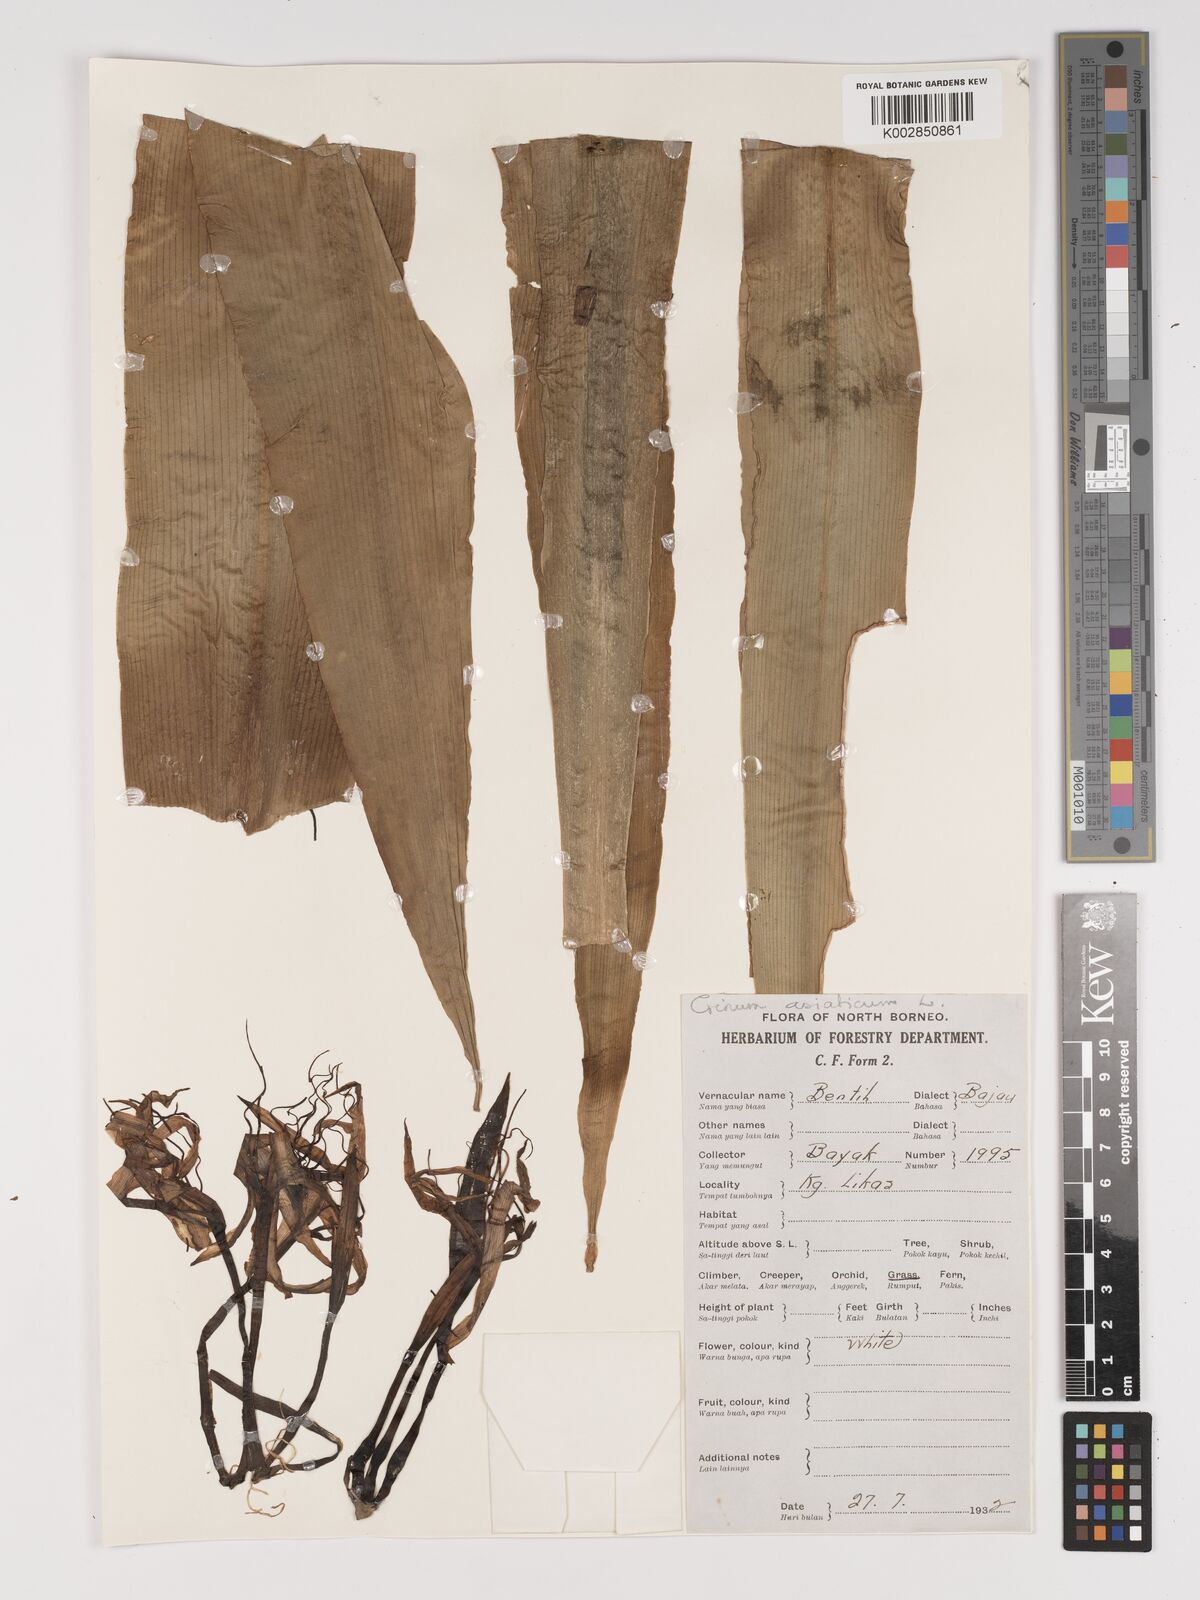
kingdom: Plantae
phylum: Tracheophyta
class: Liliopsida
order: Asparagales
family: Amaryllidaceae
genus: Crinum
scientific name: Crinum asiaticum
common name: Poisonbulb
